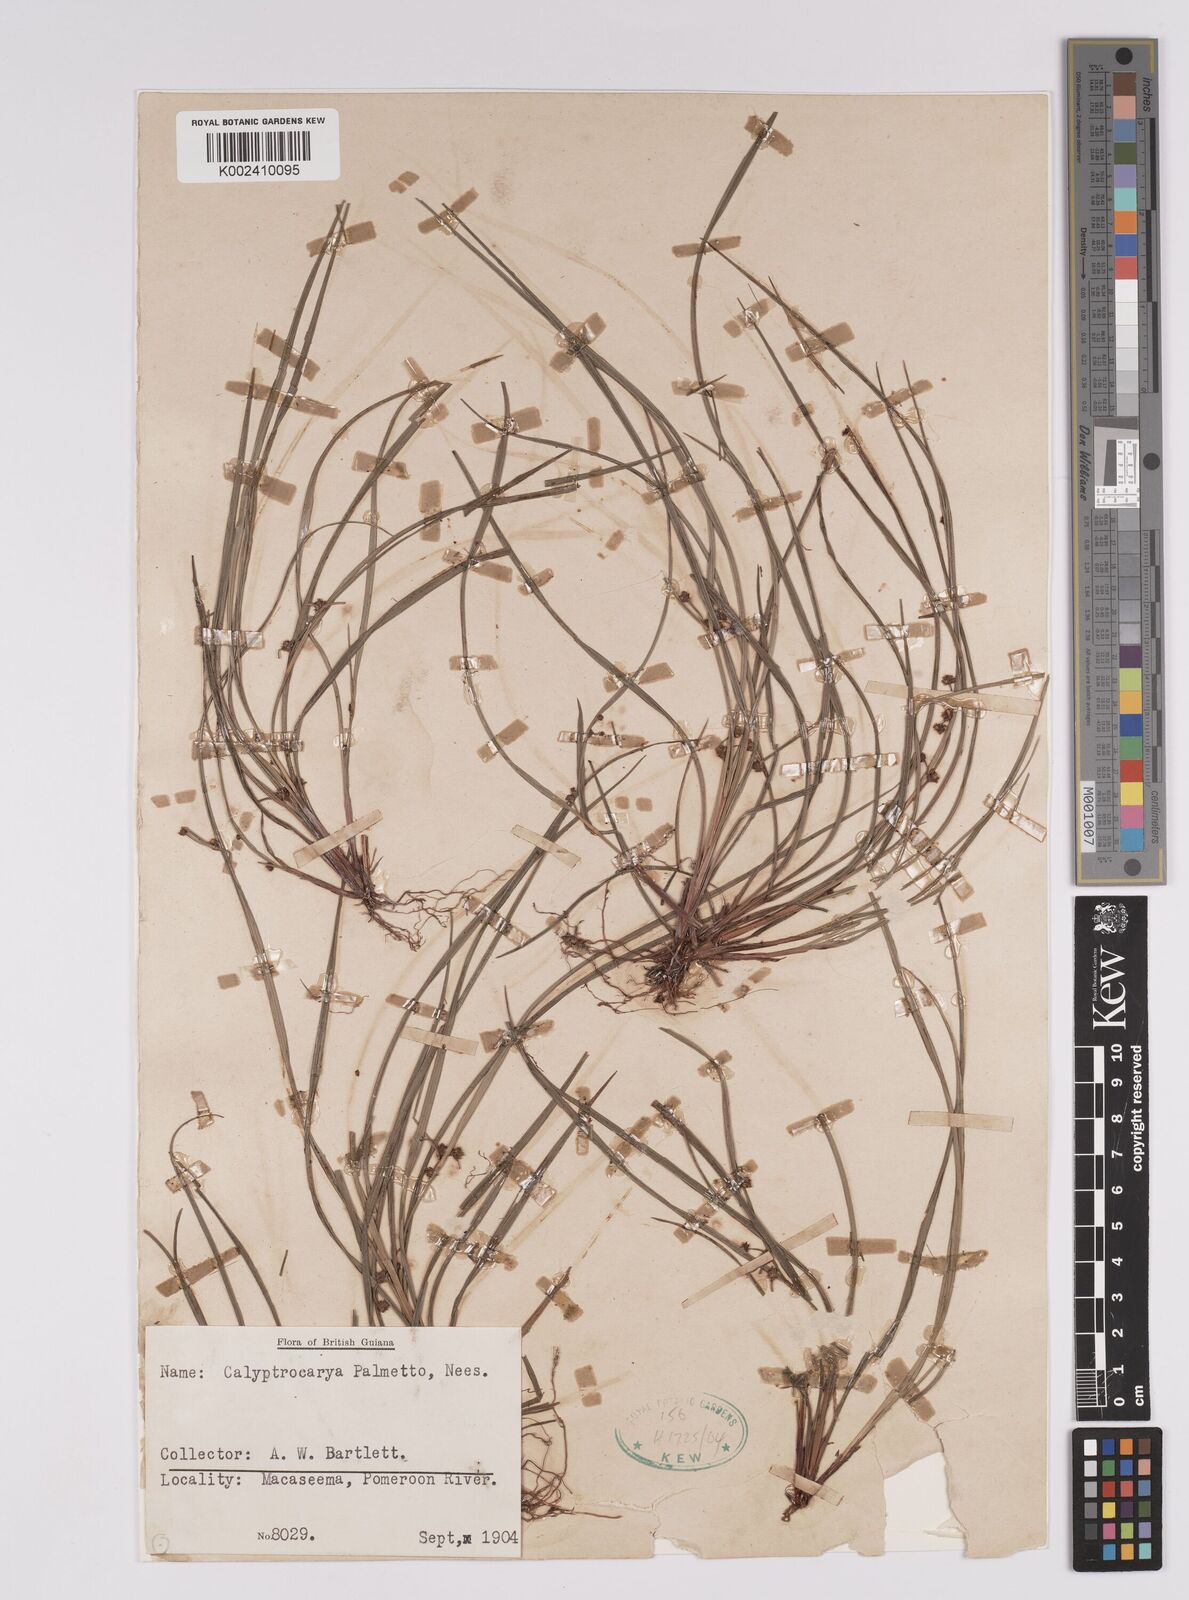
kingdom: Plantae
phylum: Tracheophyta
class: Liliopsida
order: Poales
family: Cyperaceae
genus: Calyptrocarya
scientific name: Calyptrocarya
